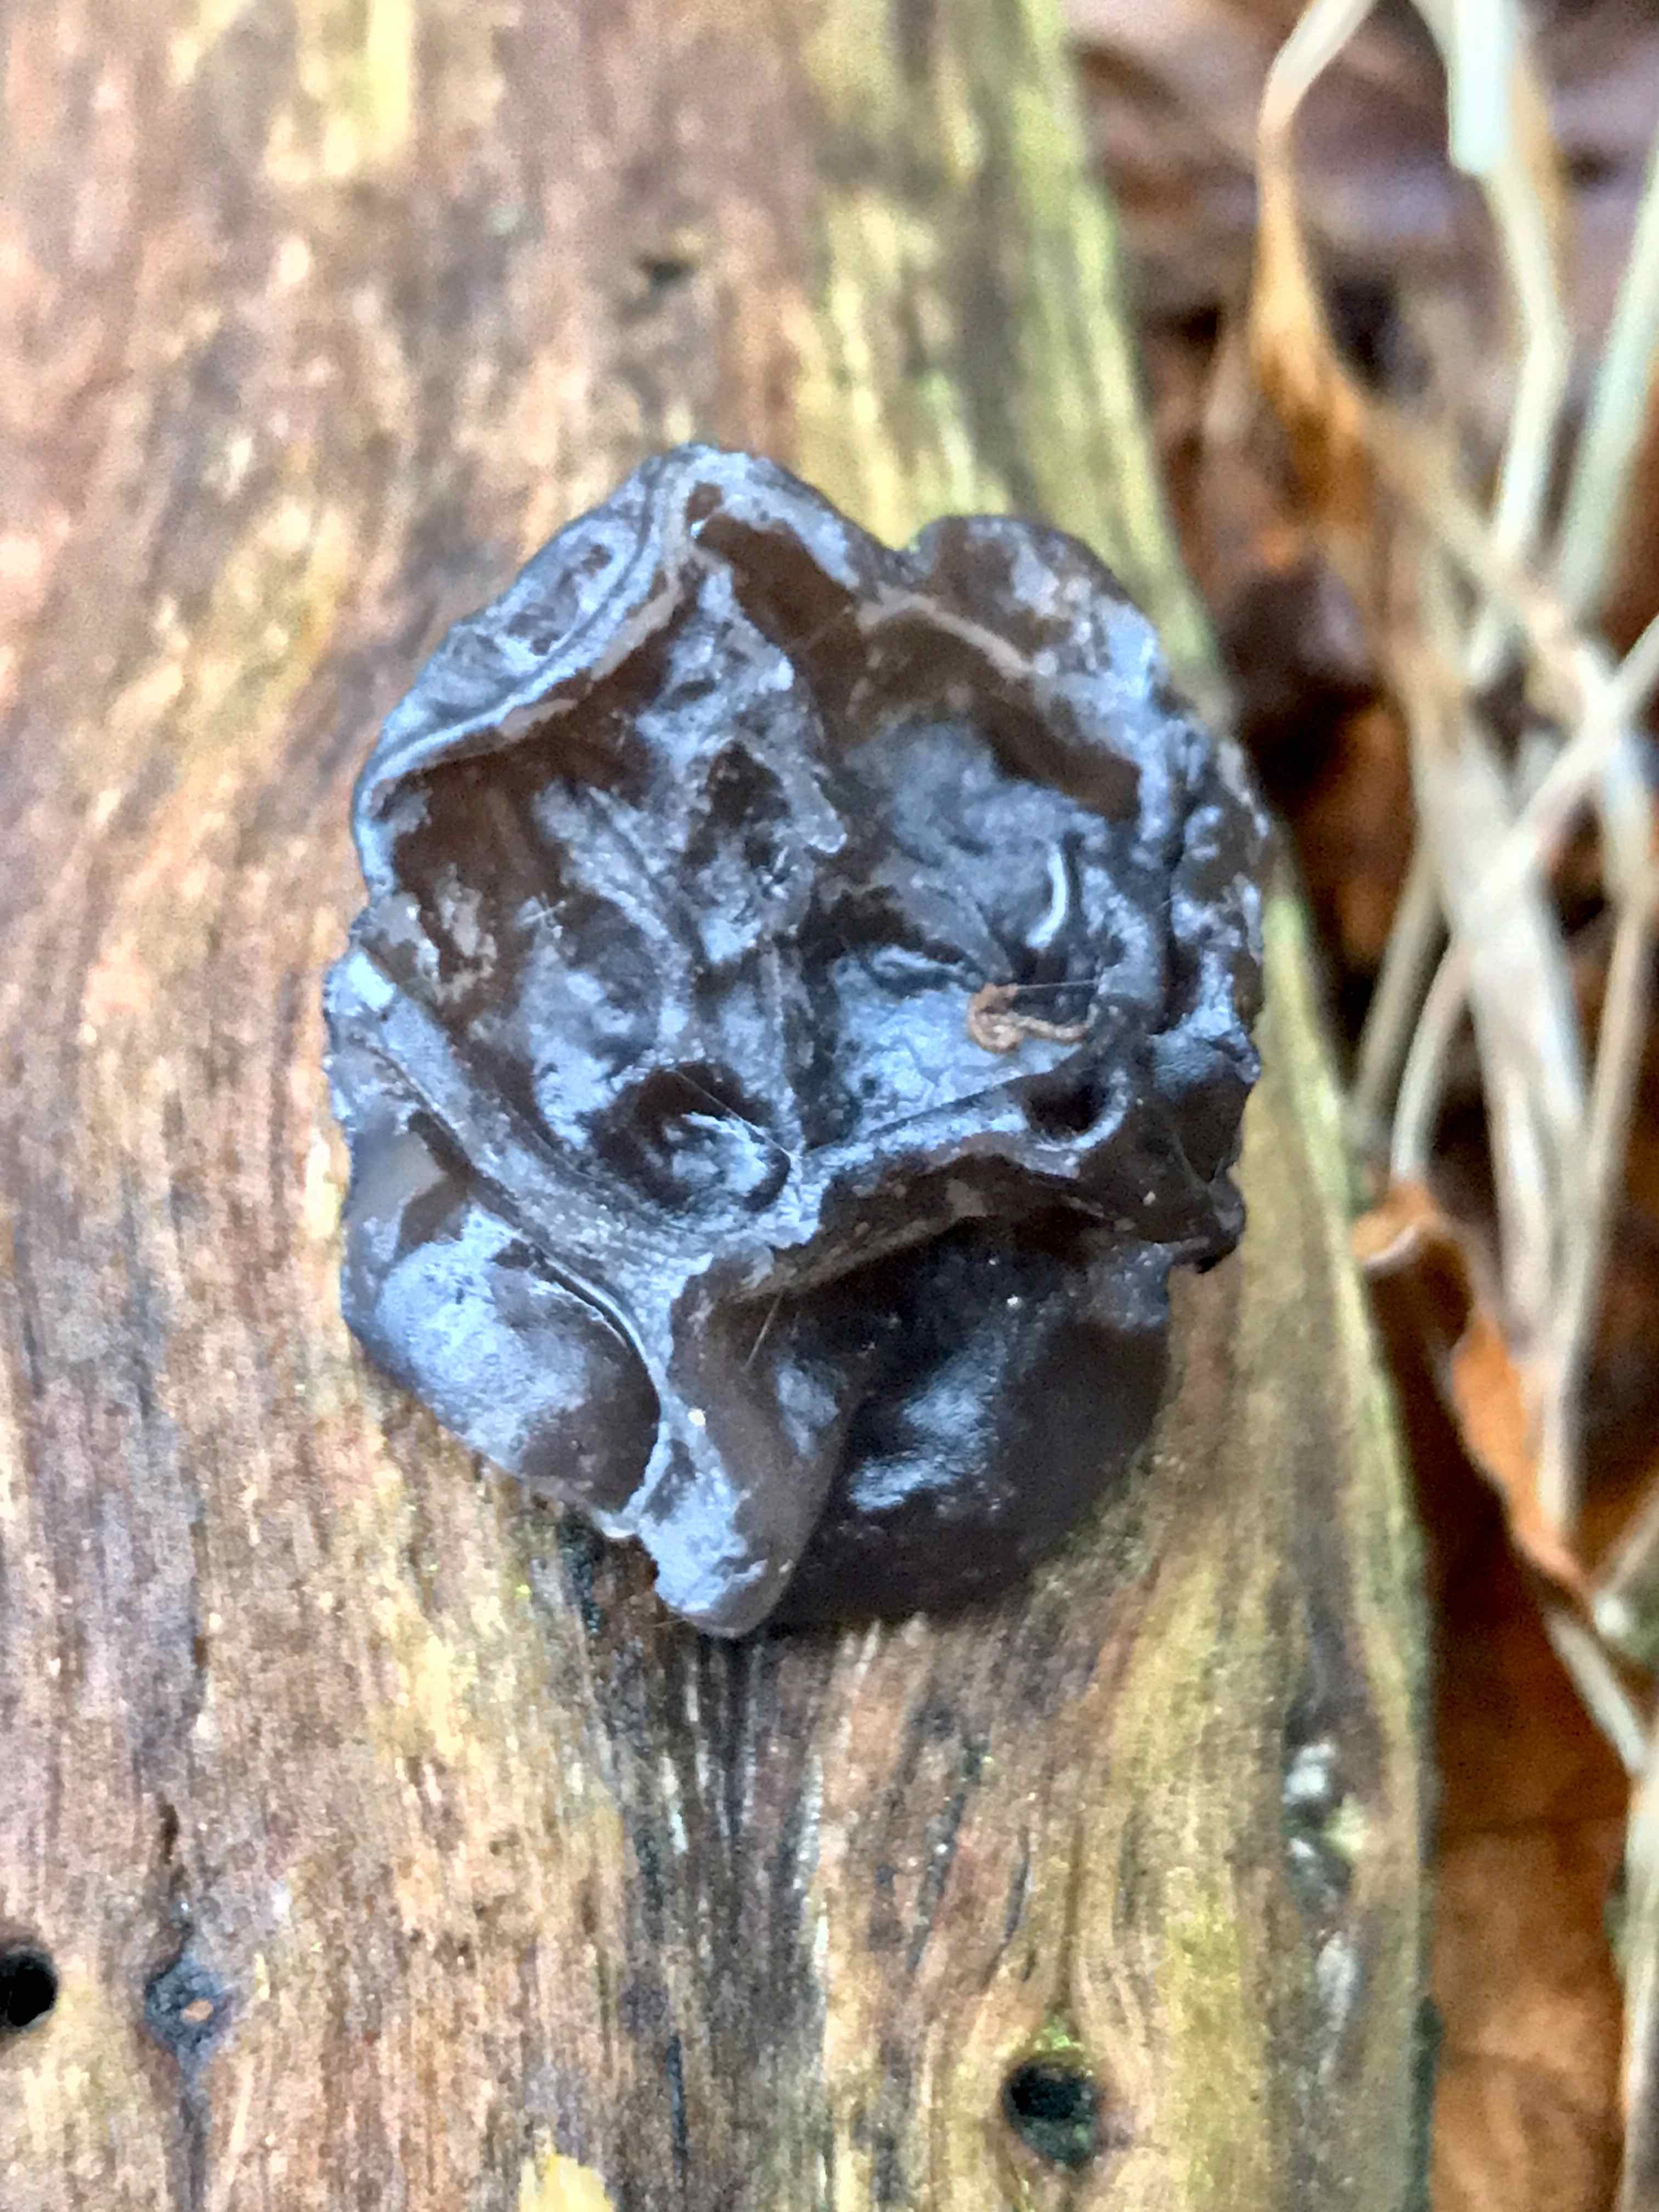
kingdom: Fungi
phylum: Basidiomycota
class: Agaricomycetes
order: Auriculariales
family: Auriculariaceae
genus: Exidia
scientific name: Exidia nigricans
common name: almindelig bævretop
